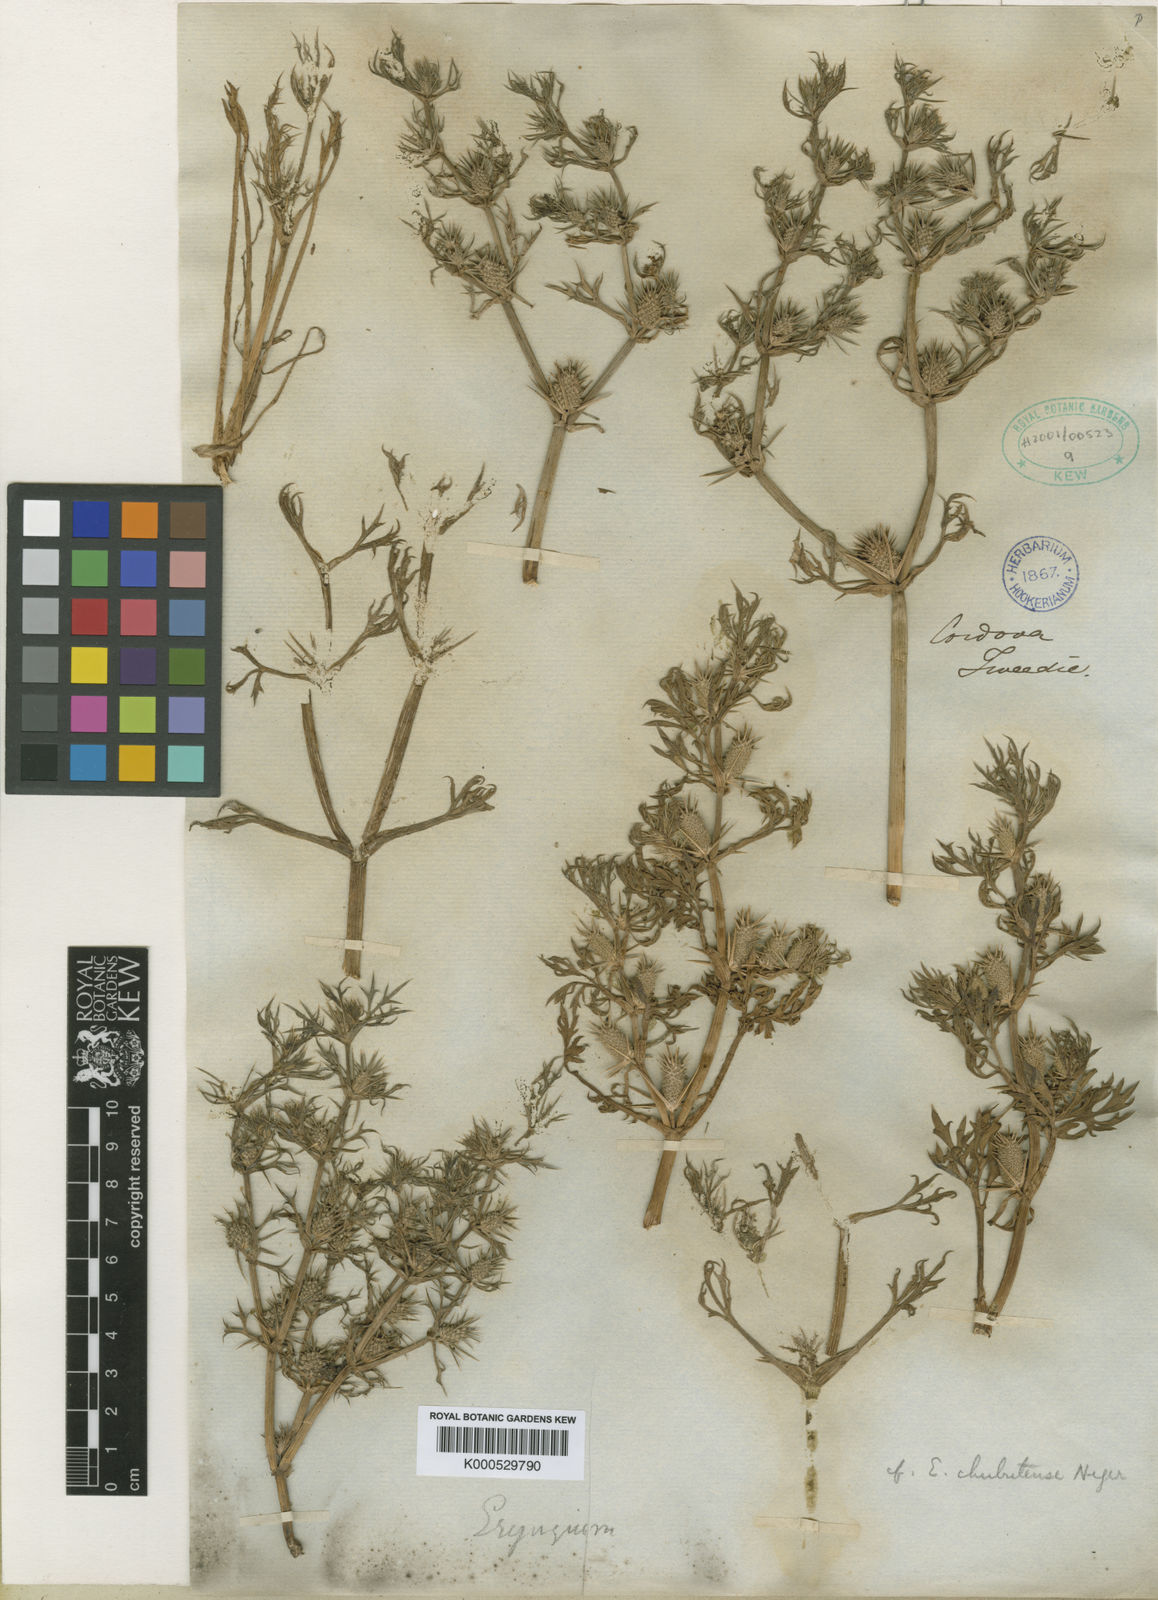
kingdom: Plantae
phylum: Tracheophyta
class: Magnoliopsida
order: Apiales
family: Apiaceae
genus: Eryngium
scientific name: Eryngium chubutense
